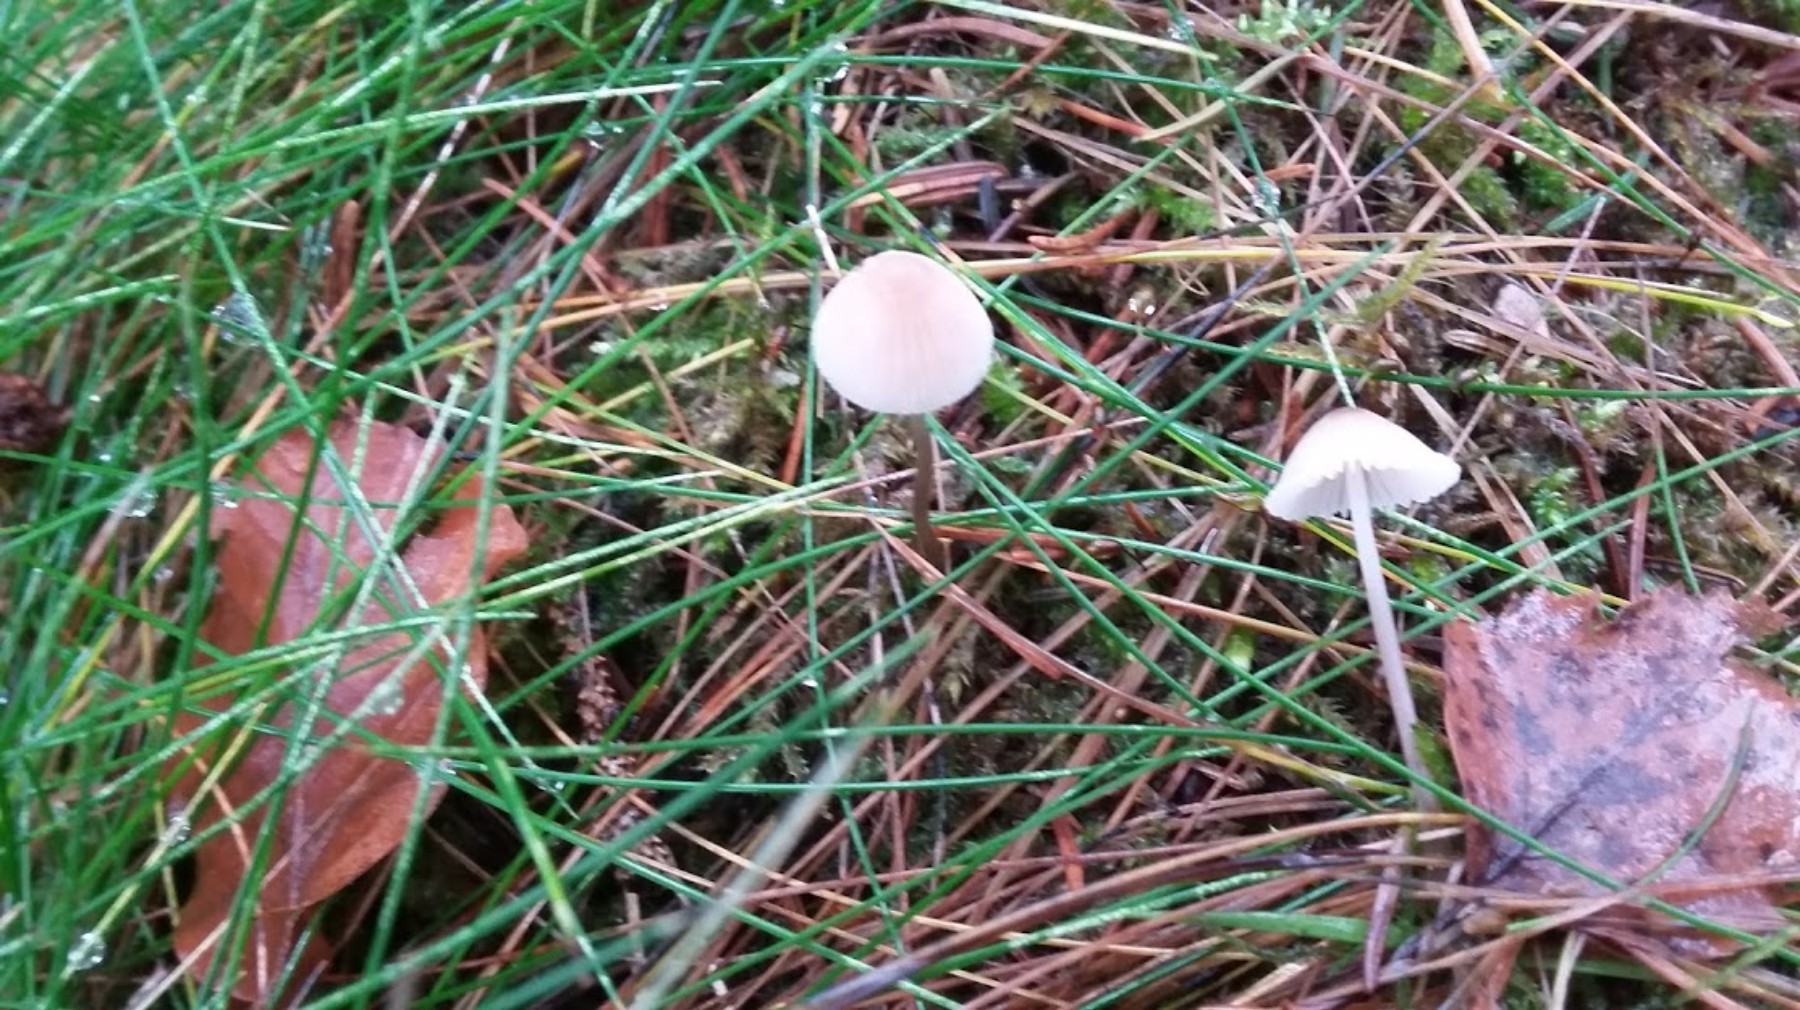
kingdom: Fungi
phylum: Basidiomycota
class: Agaricomycetes
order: Agaricales
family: Mycenaceae
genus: Mycena
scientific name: Mycena
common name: huesvamp
